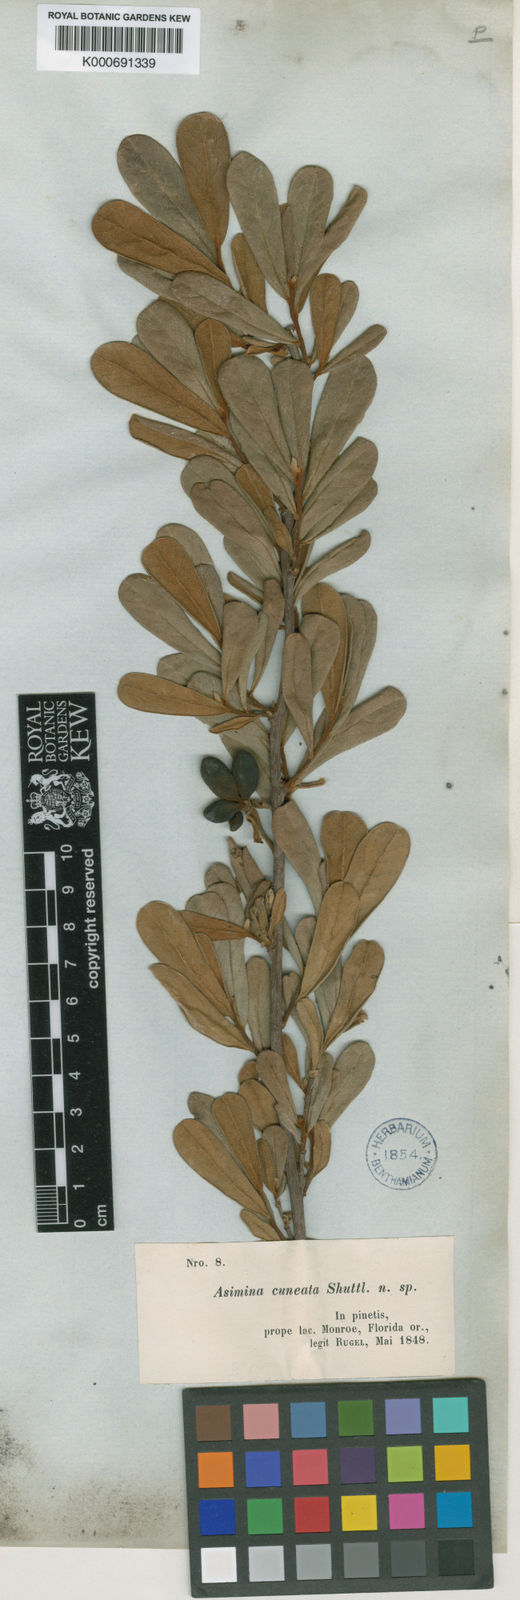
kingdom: Plantae
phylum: Tracheophyta
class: Magnoliopsida
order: Magnoliales
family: Annonaceae
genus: Asimina
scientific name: Asimina reticulata
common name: Flag pawpaw
